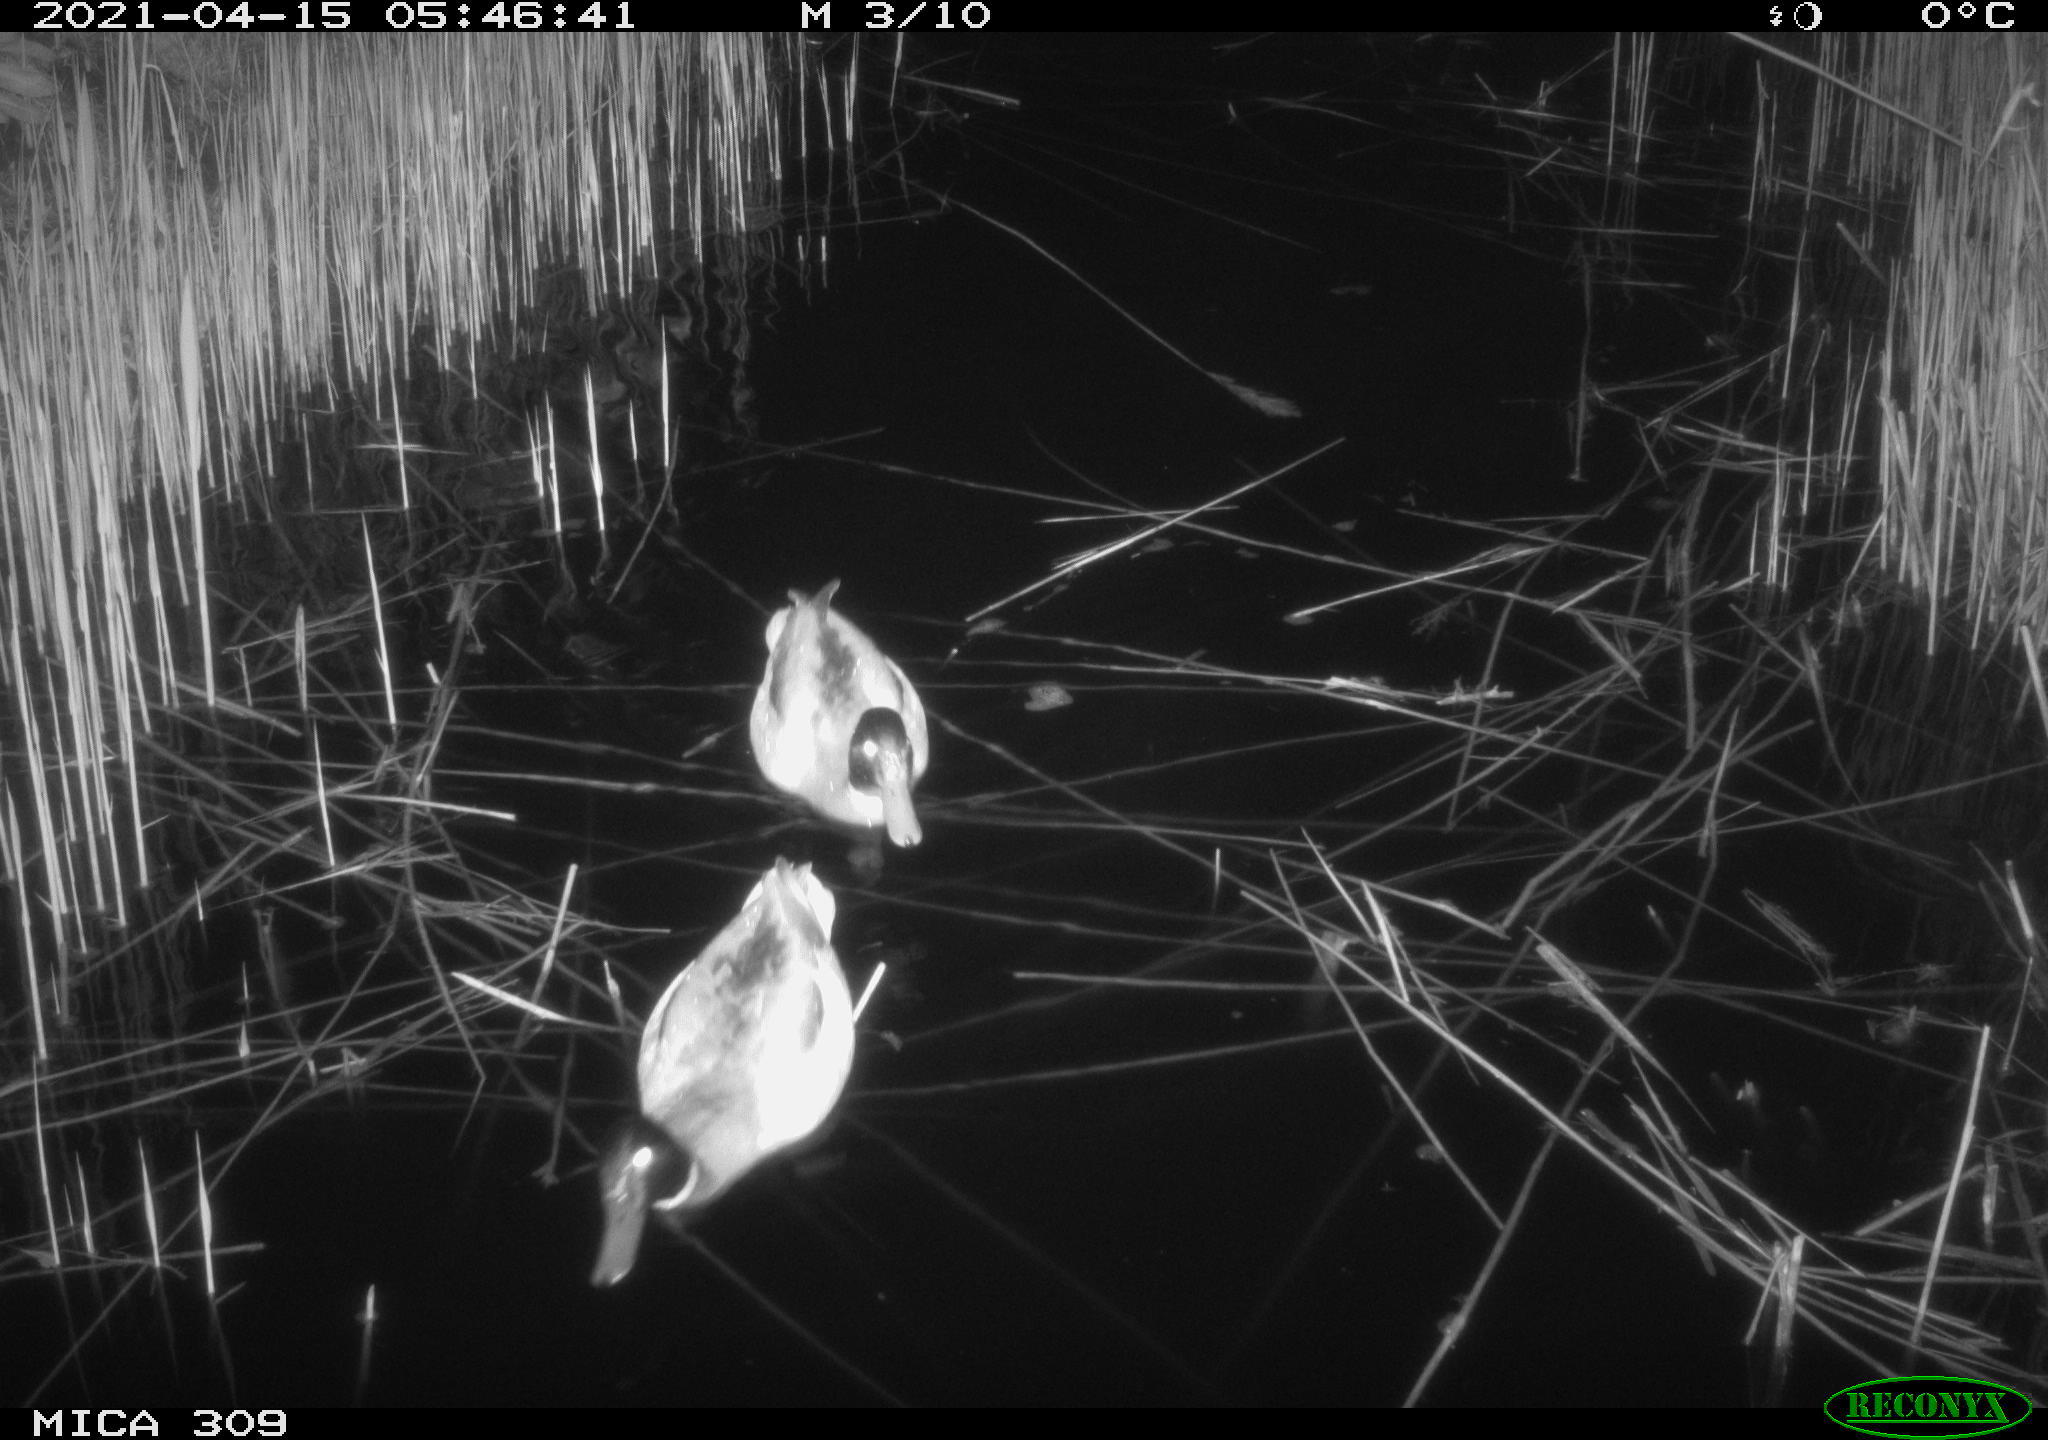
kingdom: Animalia
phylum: Chordata
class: Aves
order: Anseriformes
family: Anatidae
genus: Anas
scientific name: Anas platyrhynchos
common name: Mallard
